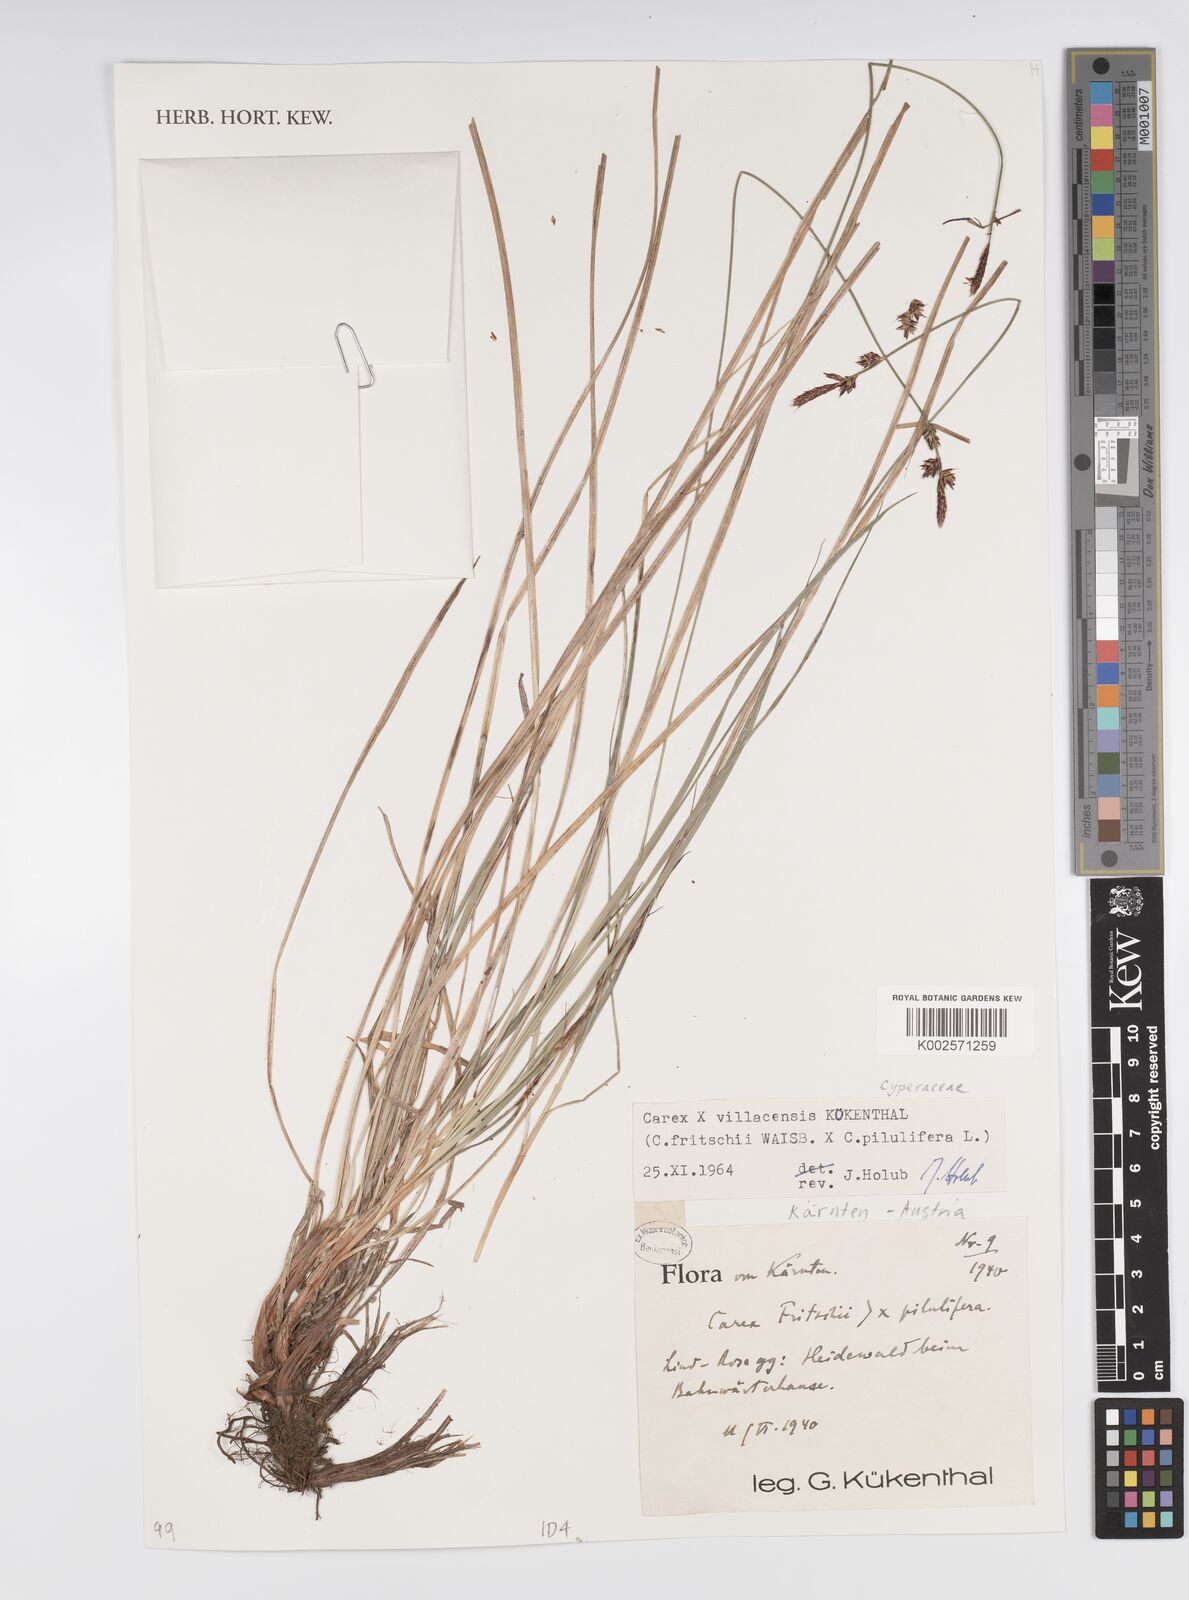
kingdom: Plantae
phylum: Tracheophyta
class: Liliopsida
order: Poales
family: Cyperaceae
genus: Carex
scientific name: Carex fritschii
